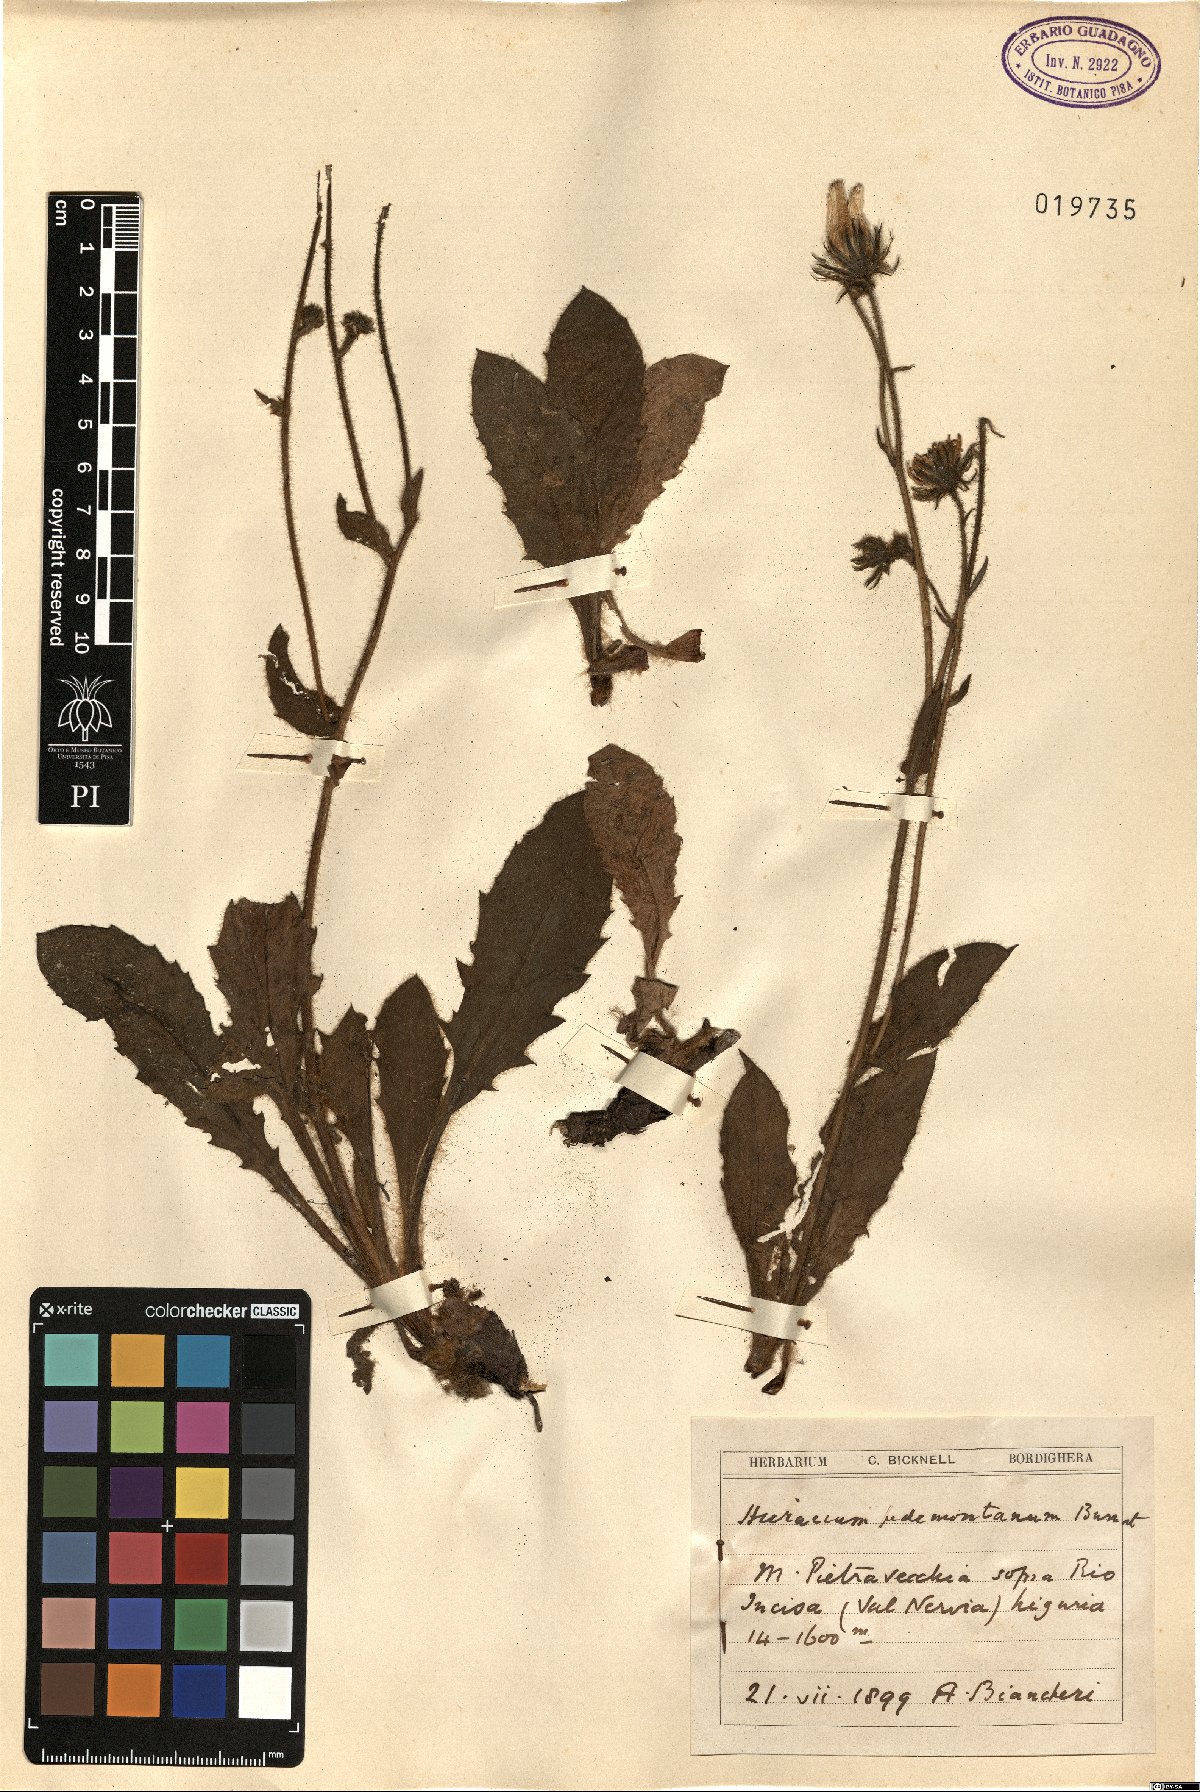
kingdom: Plantae
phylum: Tracheophyta
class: Magnoliopsida
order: Asterales
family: Asteraceae
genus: Hieracium
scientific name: Hieracium pedemontanum
